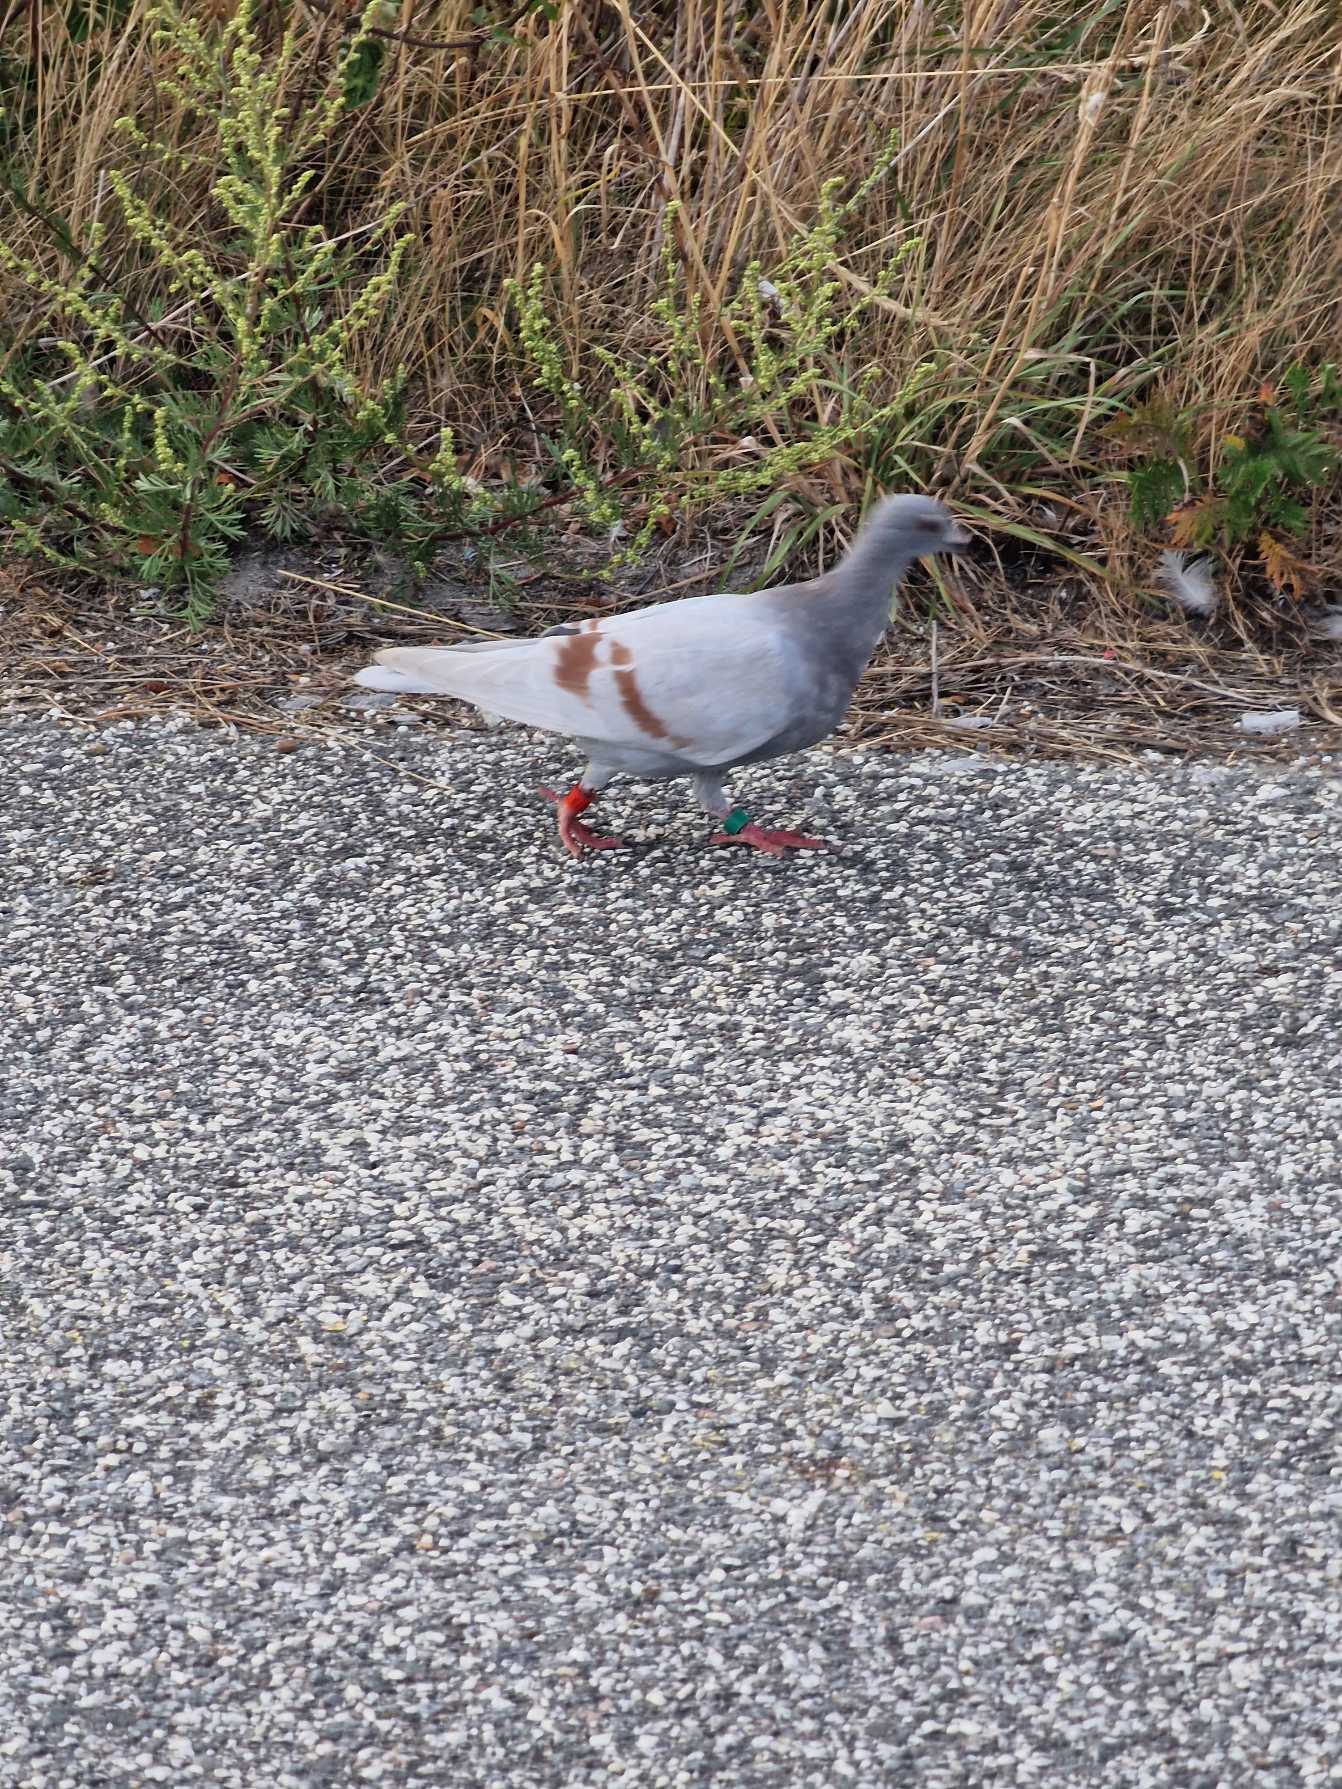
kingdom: Animalia
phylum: Chordata
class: Aves
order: Columbiformes
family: Columbidae
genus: Columba
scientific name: Columba livia
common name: Klippedue
